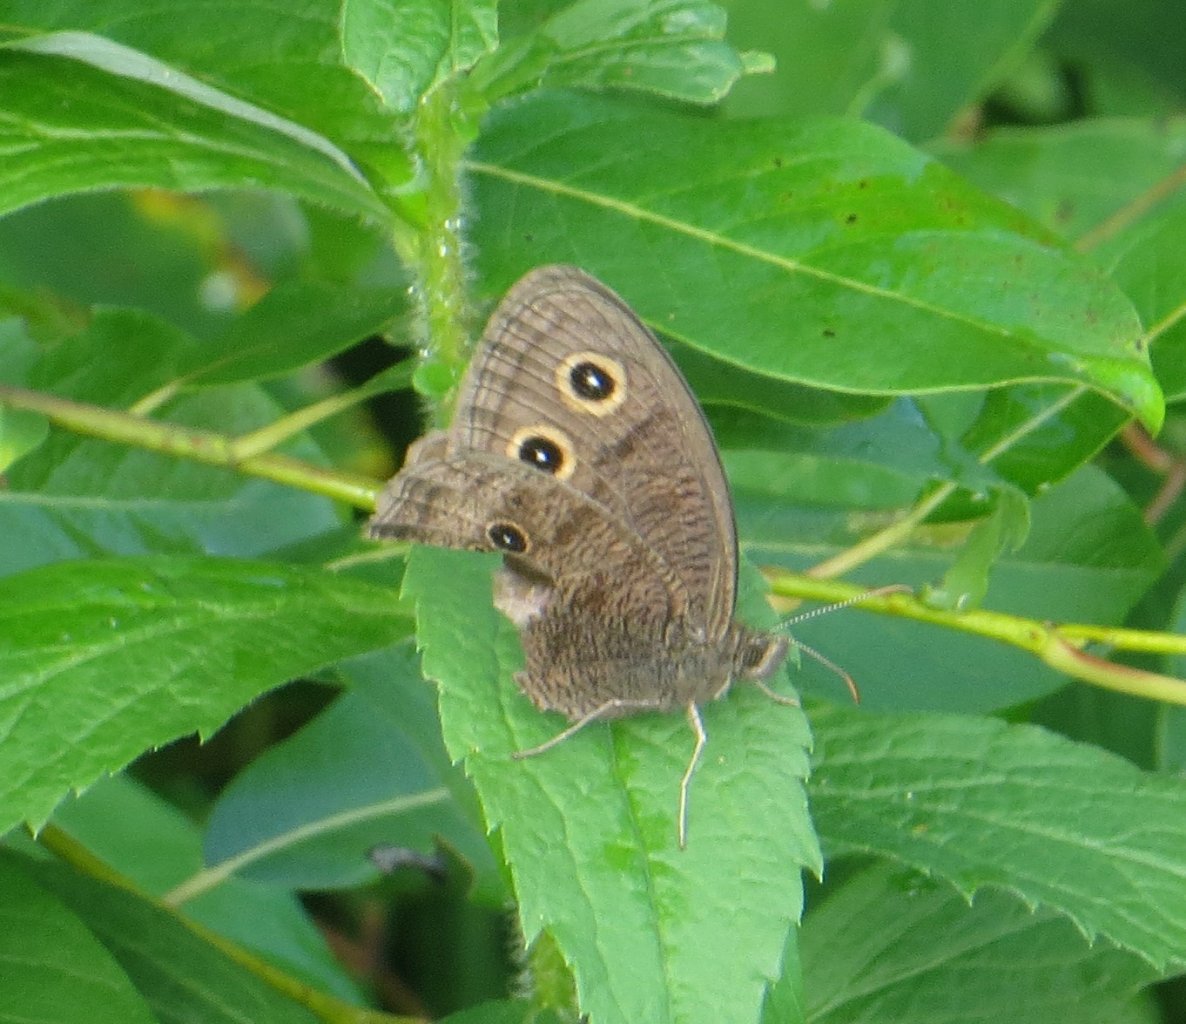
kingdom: Animalia
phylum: Arthropoda
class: Insecta
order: Lepidoptera
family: Nymphalidae
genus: Euptychia
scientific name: Euptychia cymela
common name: Little Wood Satyr
